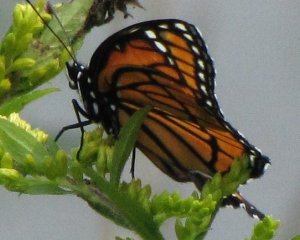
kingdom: Animalia
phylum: Arthropoda
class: Insecta
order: Lepidoptera
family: Nymphalidae
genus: Limenitis
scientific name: Limenitis archippus
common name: Viceroy
